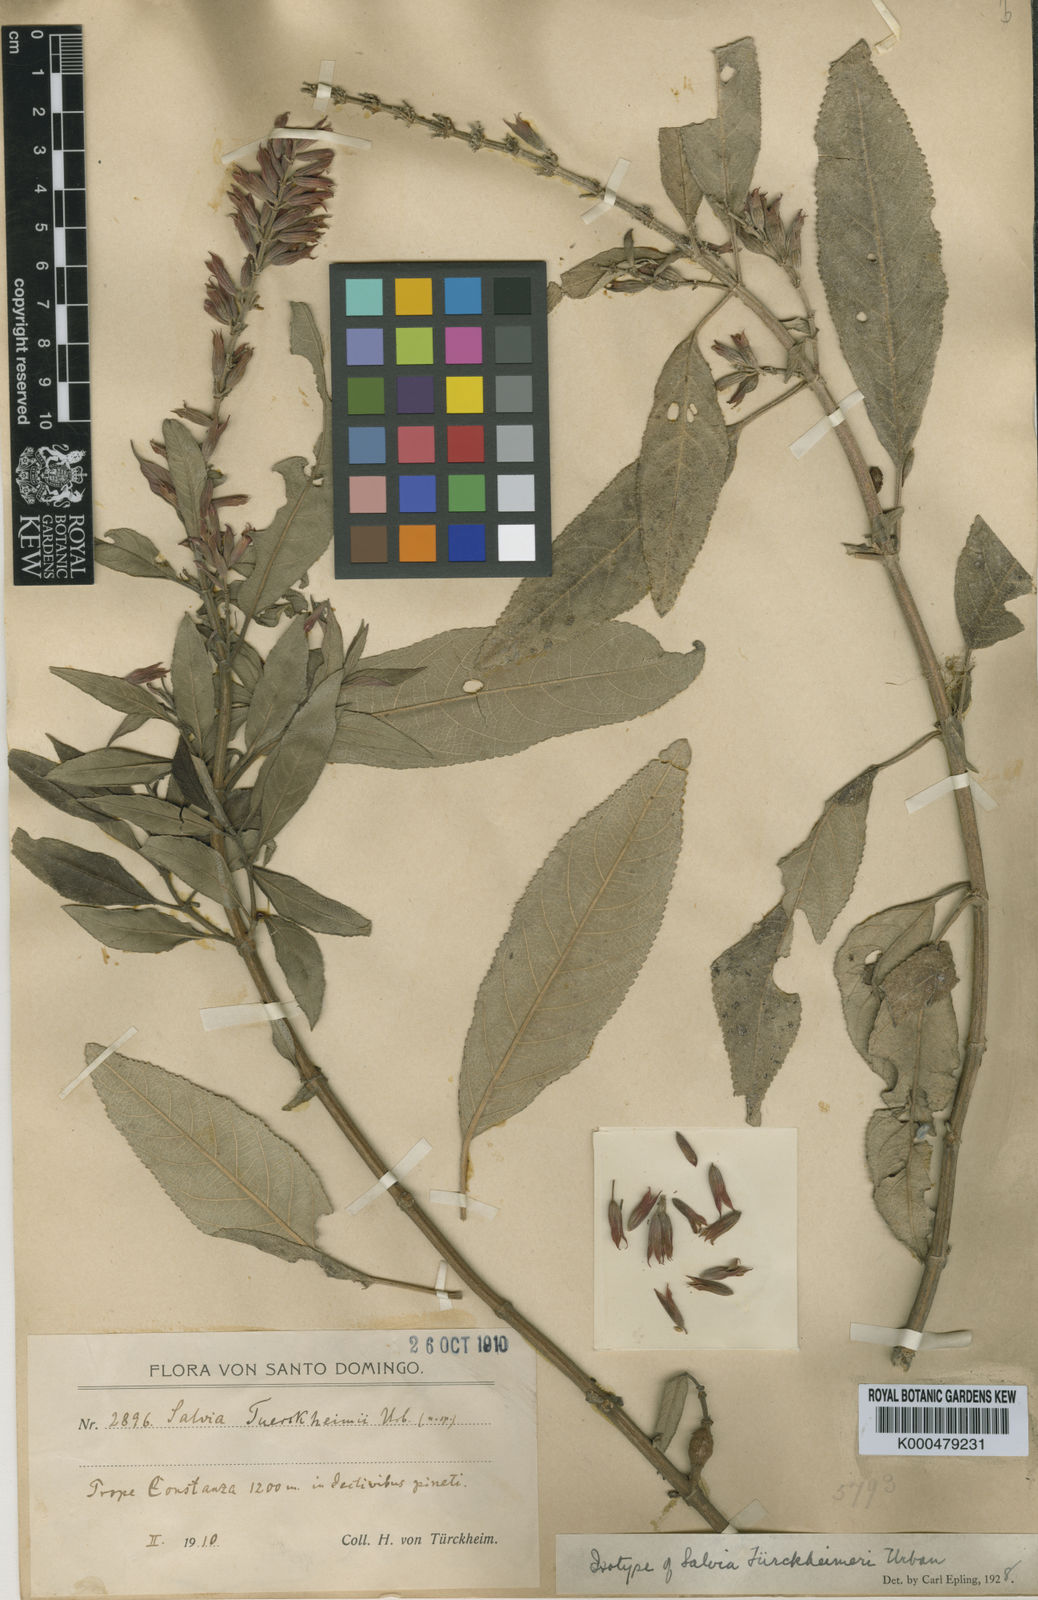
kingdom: Plantae
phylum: Tracheophyta
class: Magnoliopsida
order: Lamiales
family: Lamiaceae
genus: Salvia
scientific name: Salvia tuerckheimii
